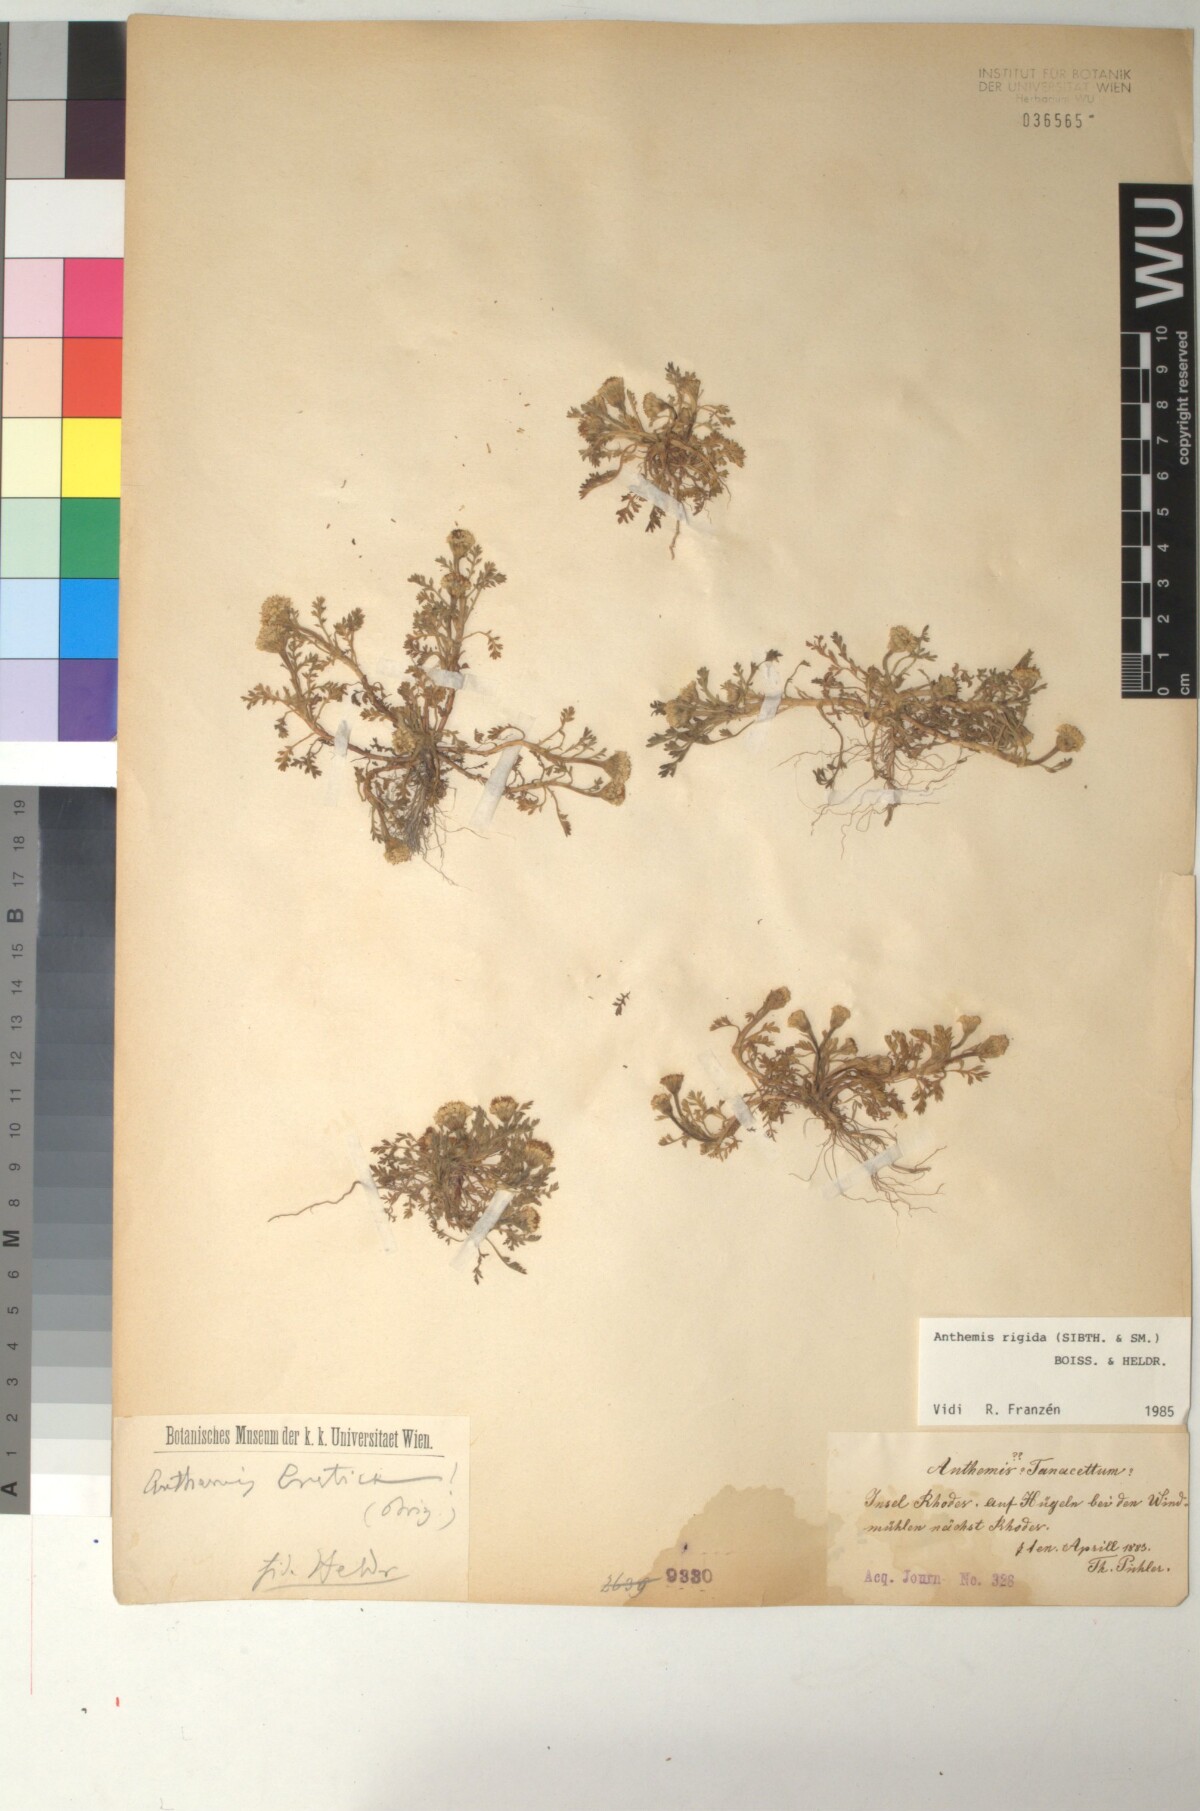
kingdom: Plantae
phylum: Tracheophyta
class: Magnoliopsida
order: Asterales
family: Asteraceae
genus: Anthemis
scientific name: Anthemis rigida
